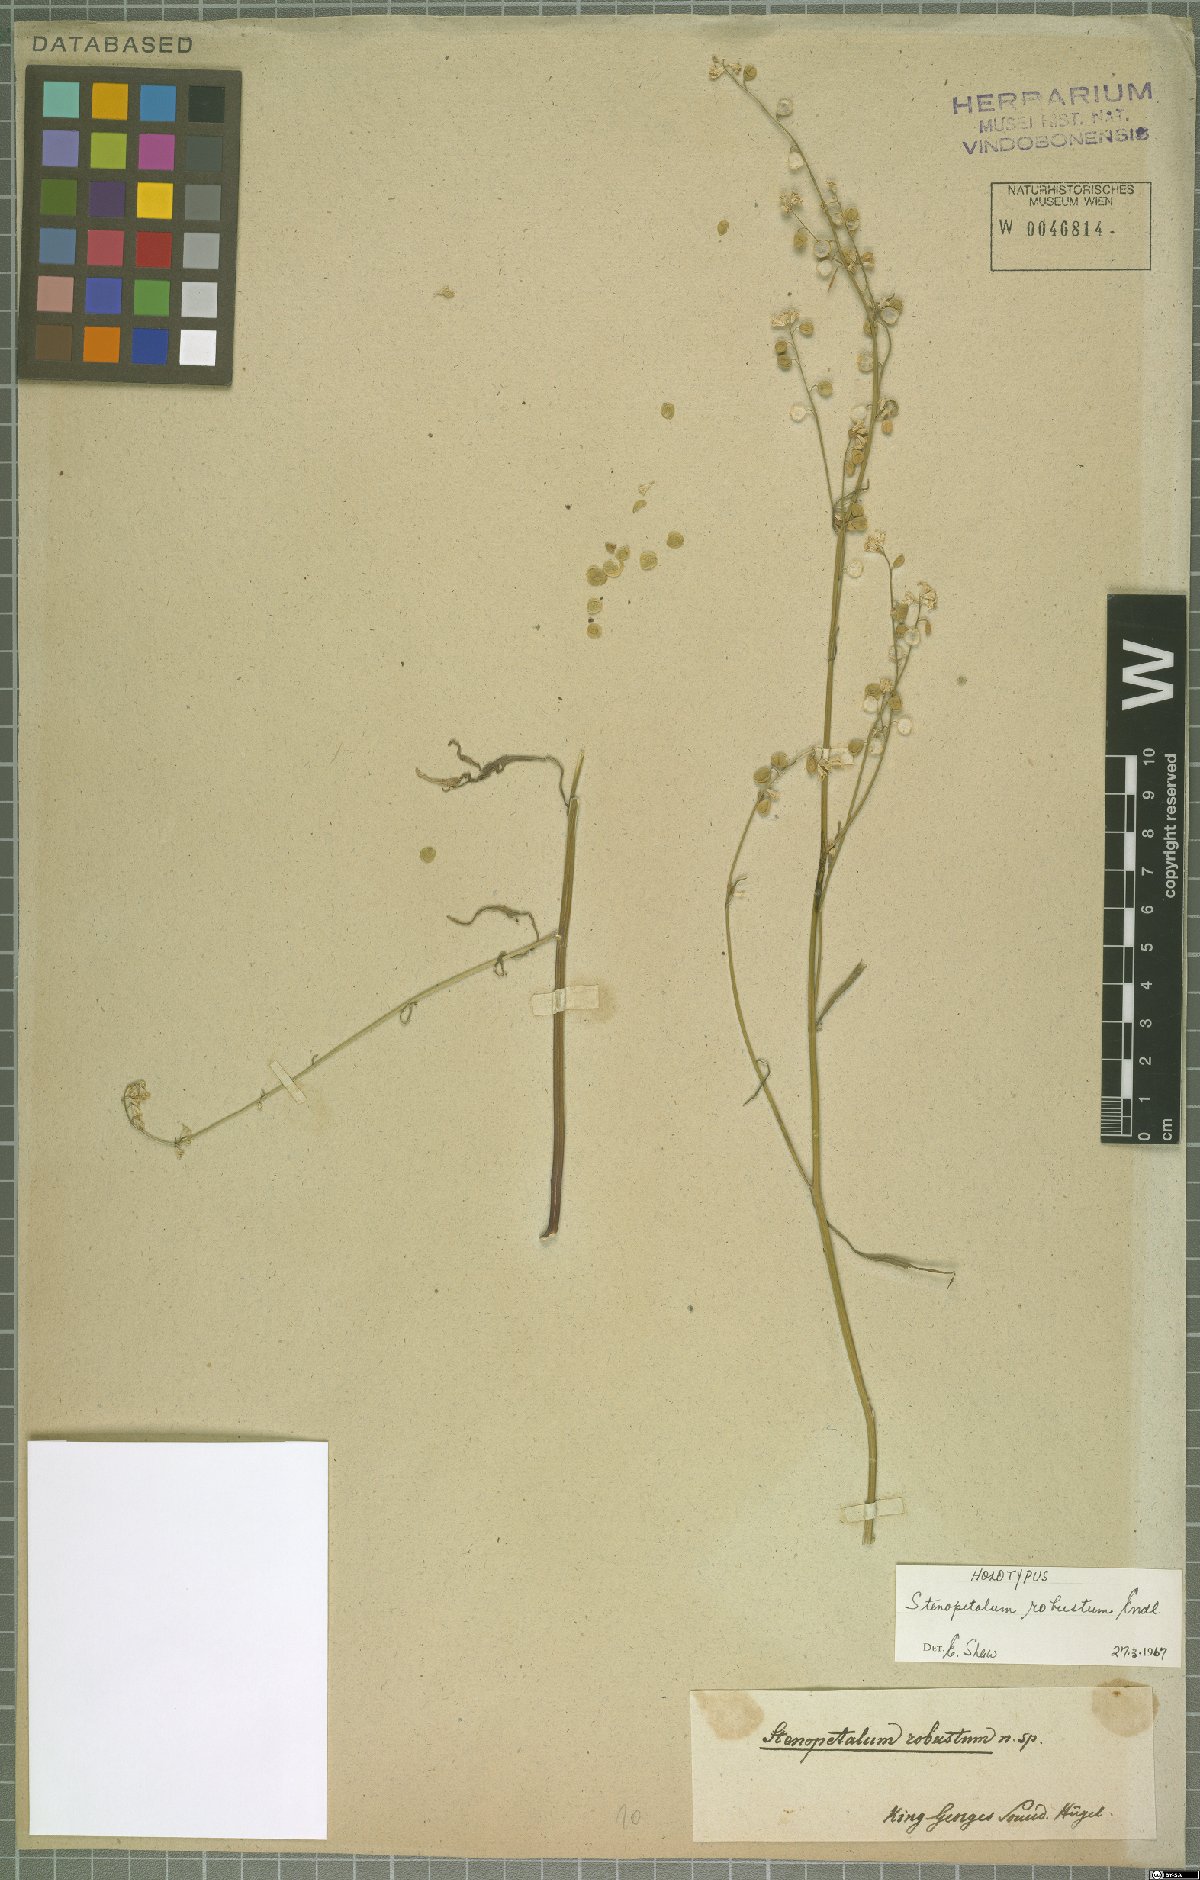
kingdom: Plantae
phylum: Tracheophyta
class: Magnoliopsida
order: Brassicales
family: Brassicaceae
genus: Stenopetalum
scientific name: Stenopetalum robustum
